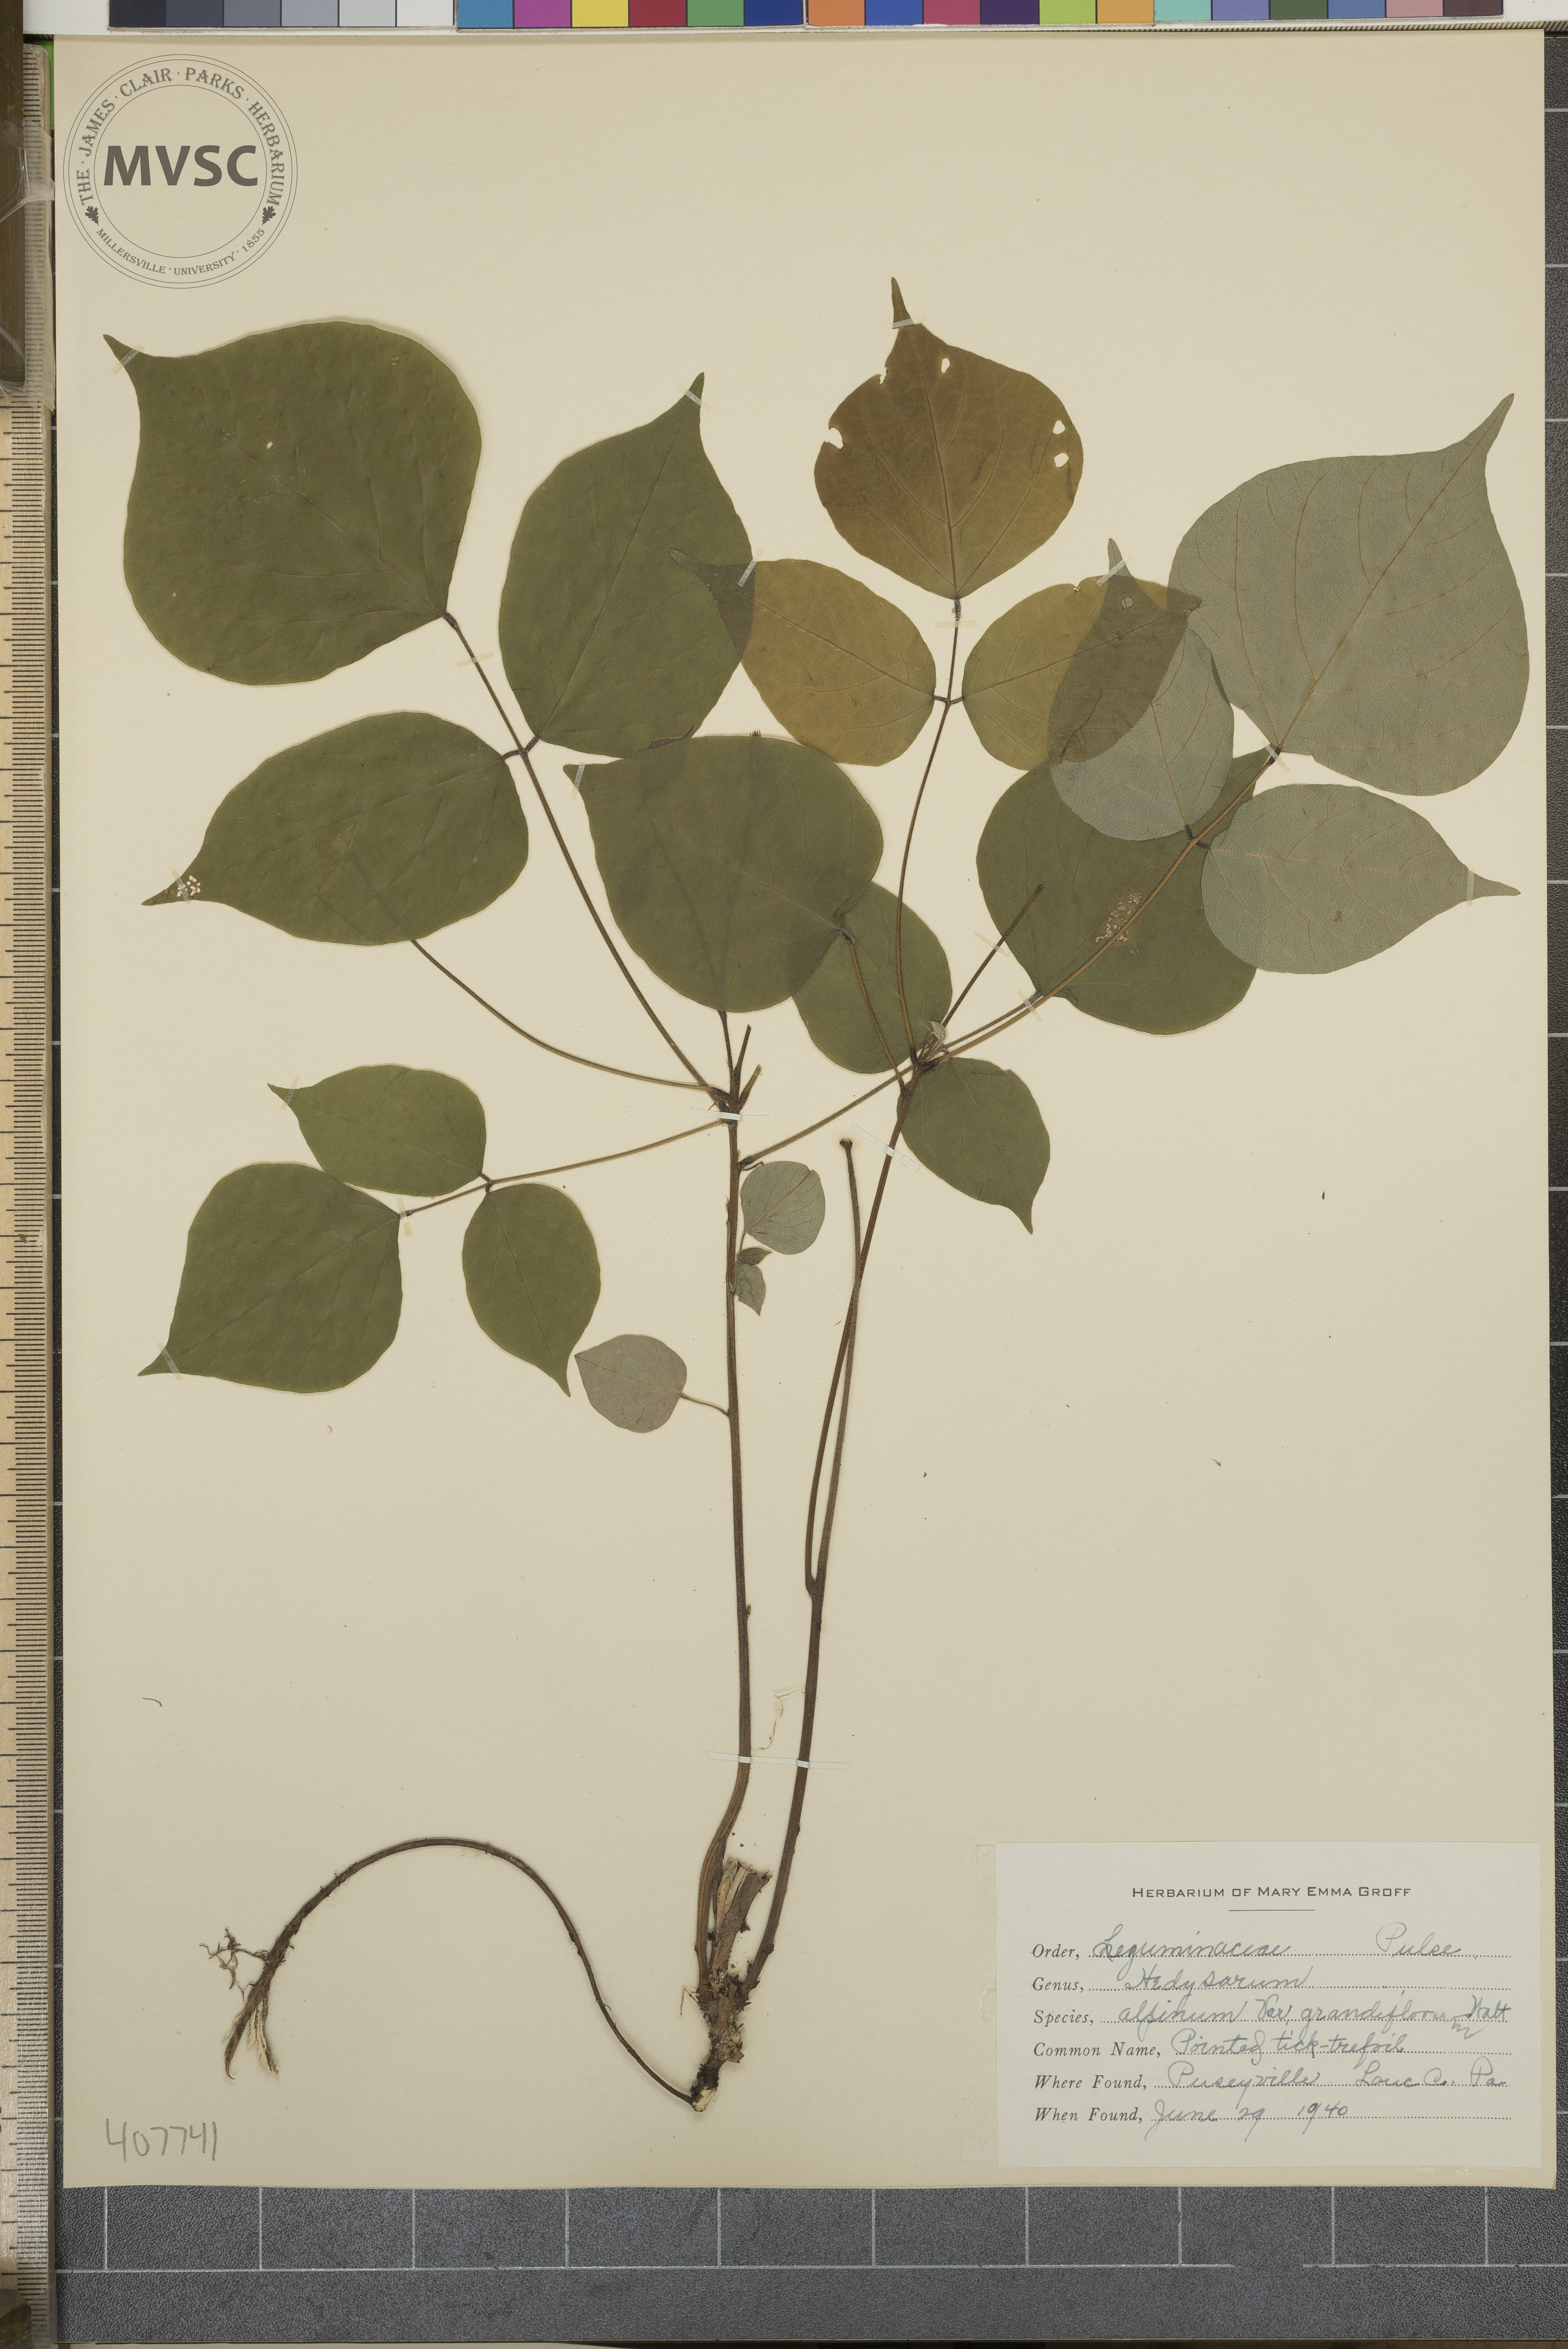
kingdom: Plantae
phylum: Tracheophyta
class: Magnoliopsida
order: Fabales
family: Fabaceae
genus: Hylodesmum
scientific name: Hylodesmum glutinosum
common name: Pointed Tick-trefoil
